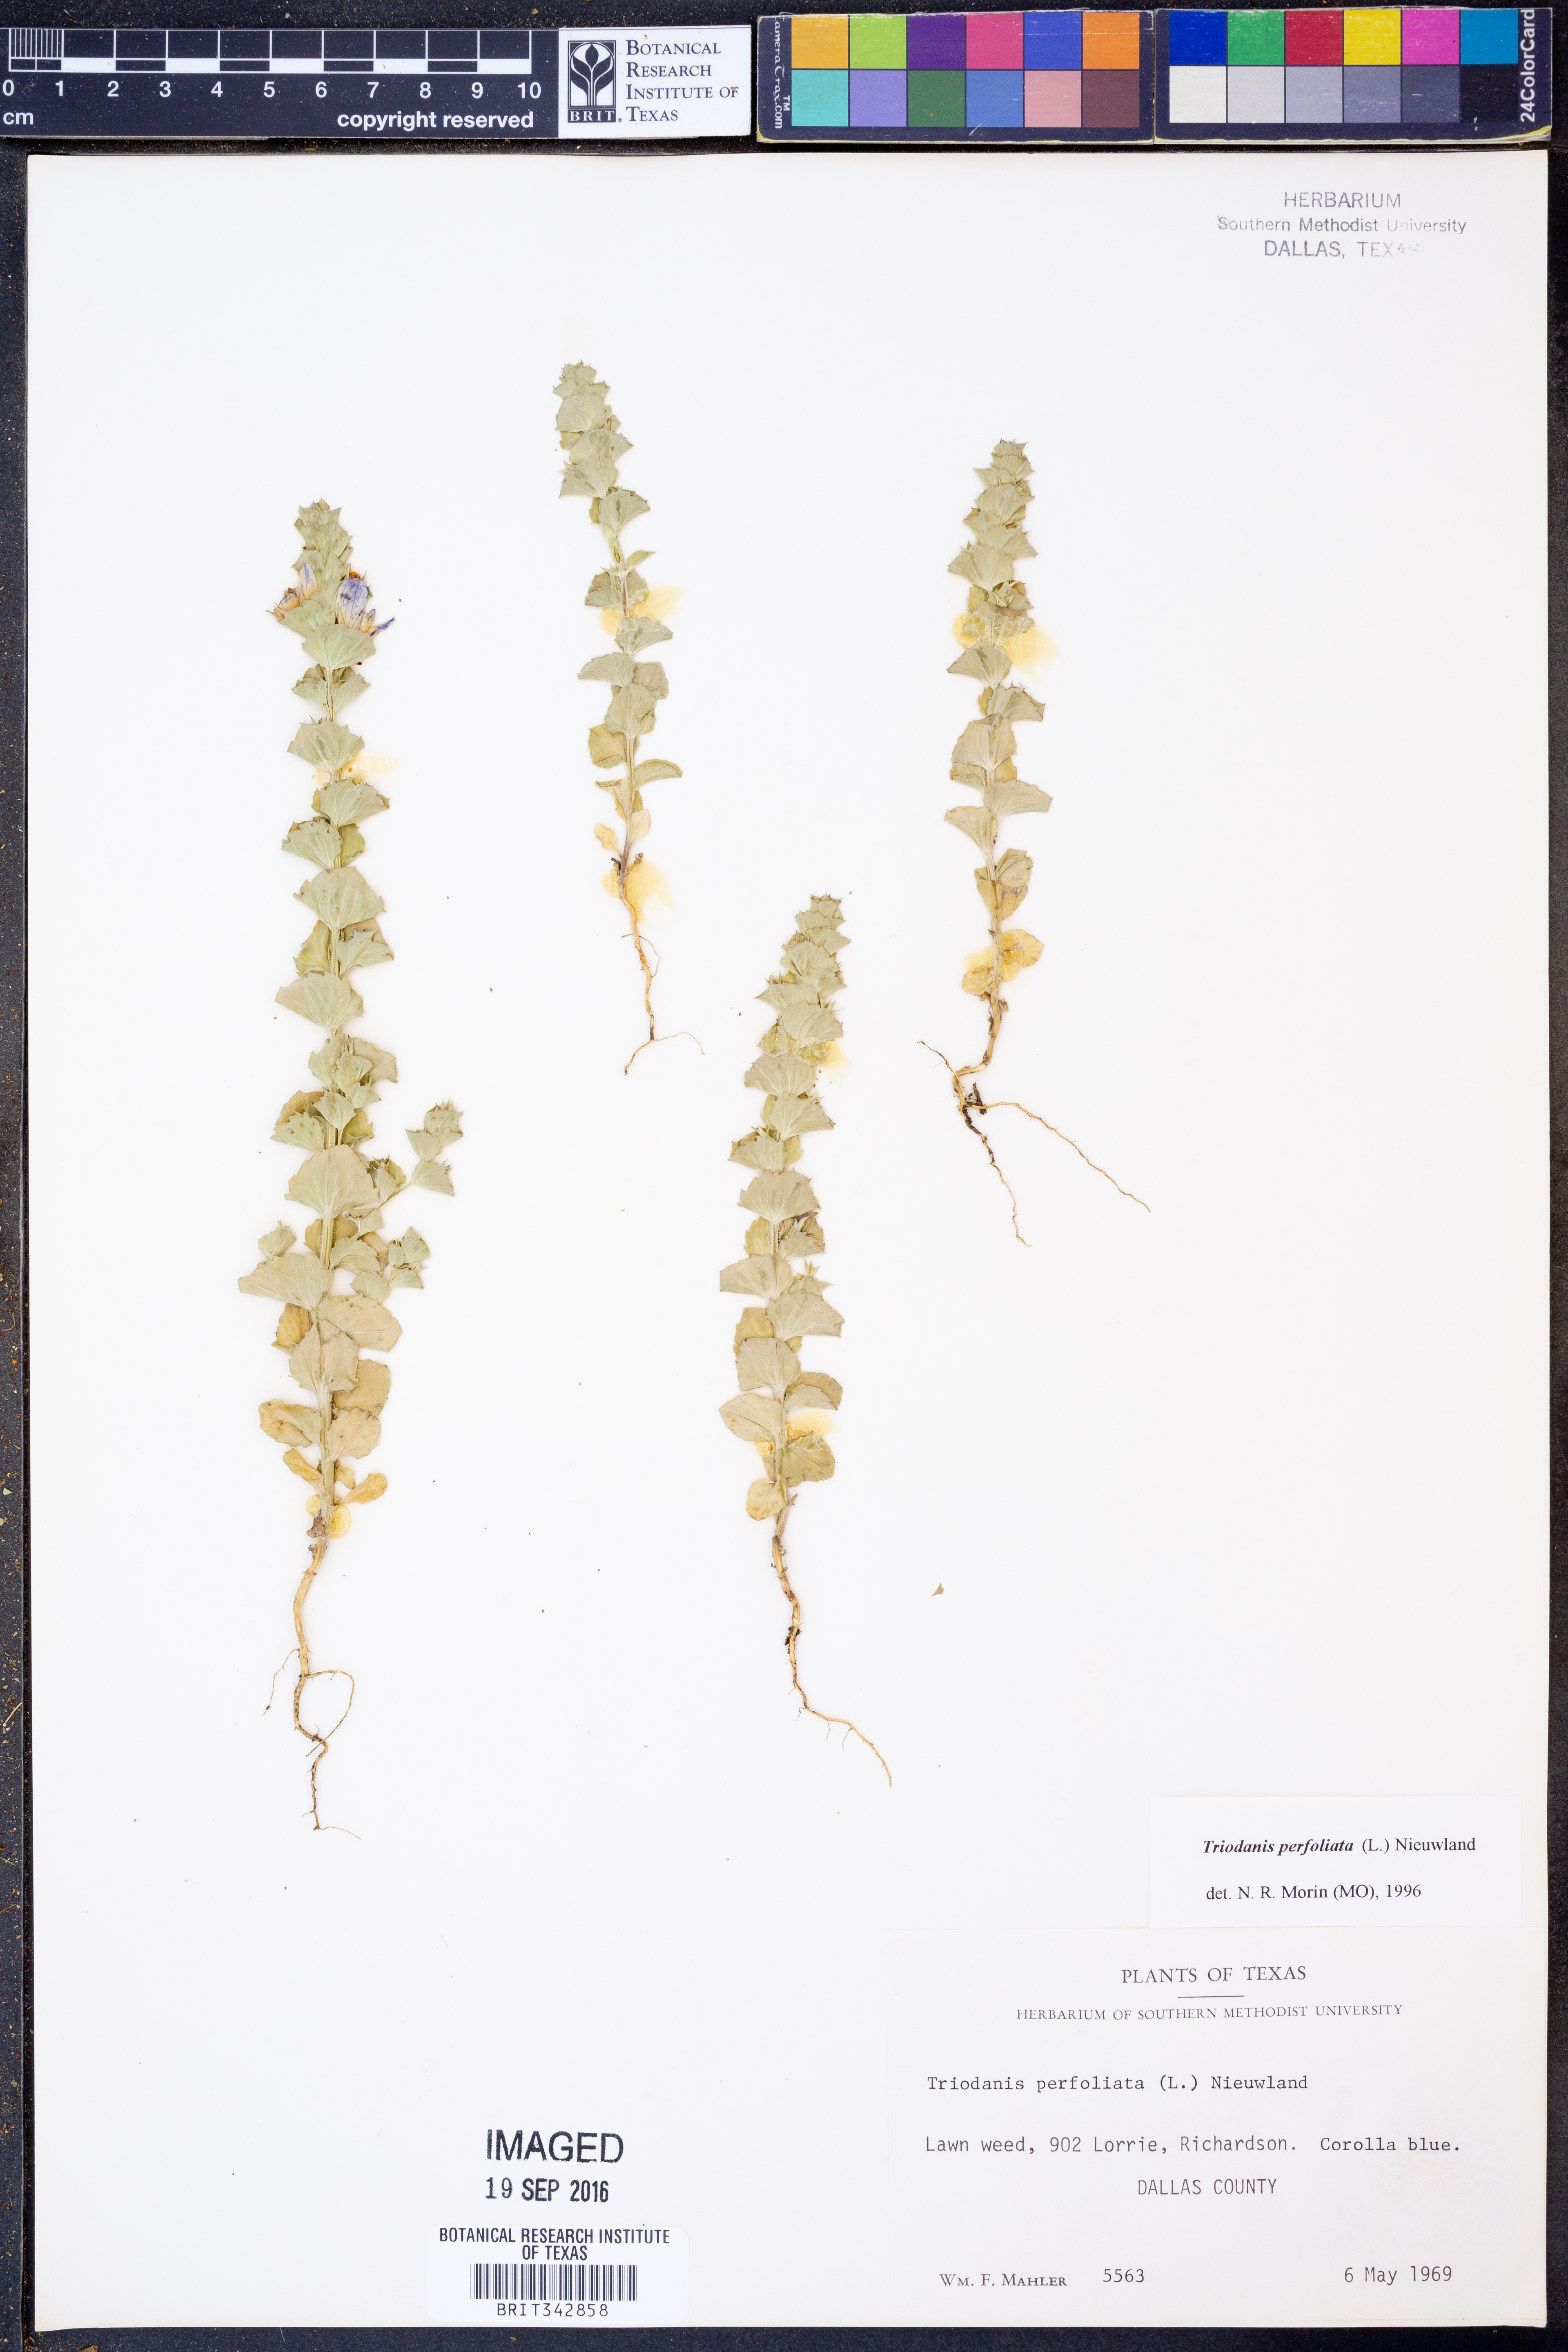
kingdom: Plantae
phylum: Tracheophyta
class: Magnoliopsida
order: Asterales
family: Campanulaceae
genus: Triodanis
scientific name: Triodanis perfoliata
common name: Clasping venus' looking-glass
